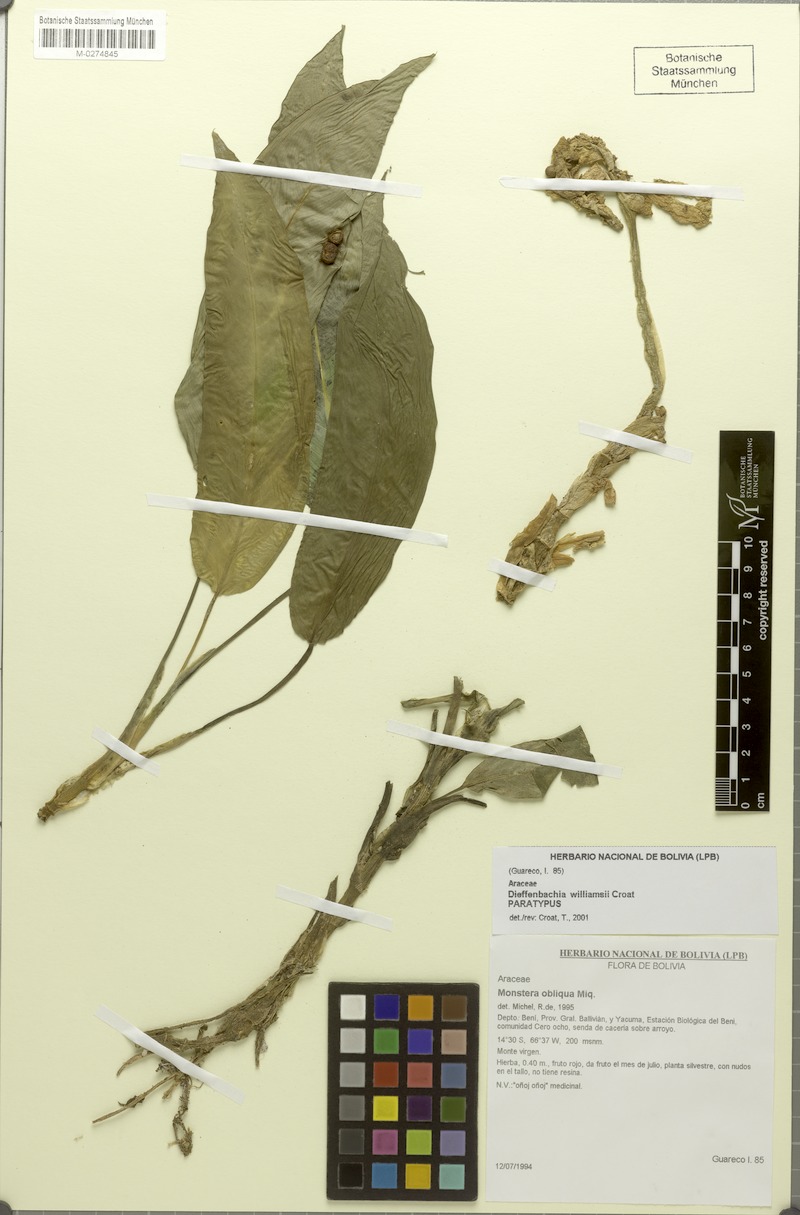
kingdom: Plantae
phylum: Tracheophyta
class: Liliopsida
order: Alismatales
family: Araceae
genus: Dieffenbachia
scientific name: Dieffenbachia williamsii
